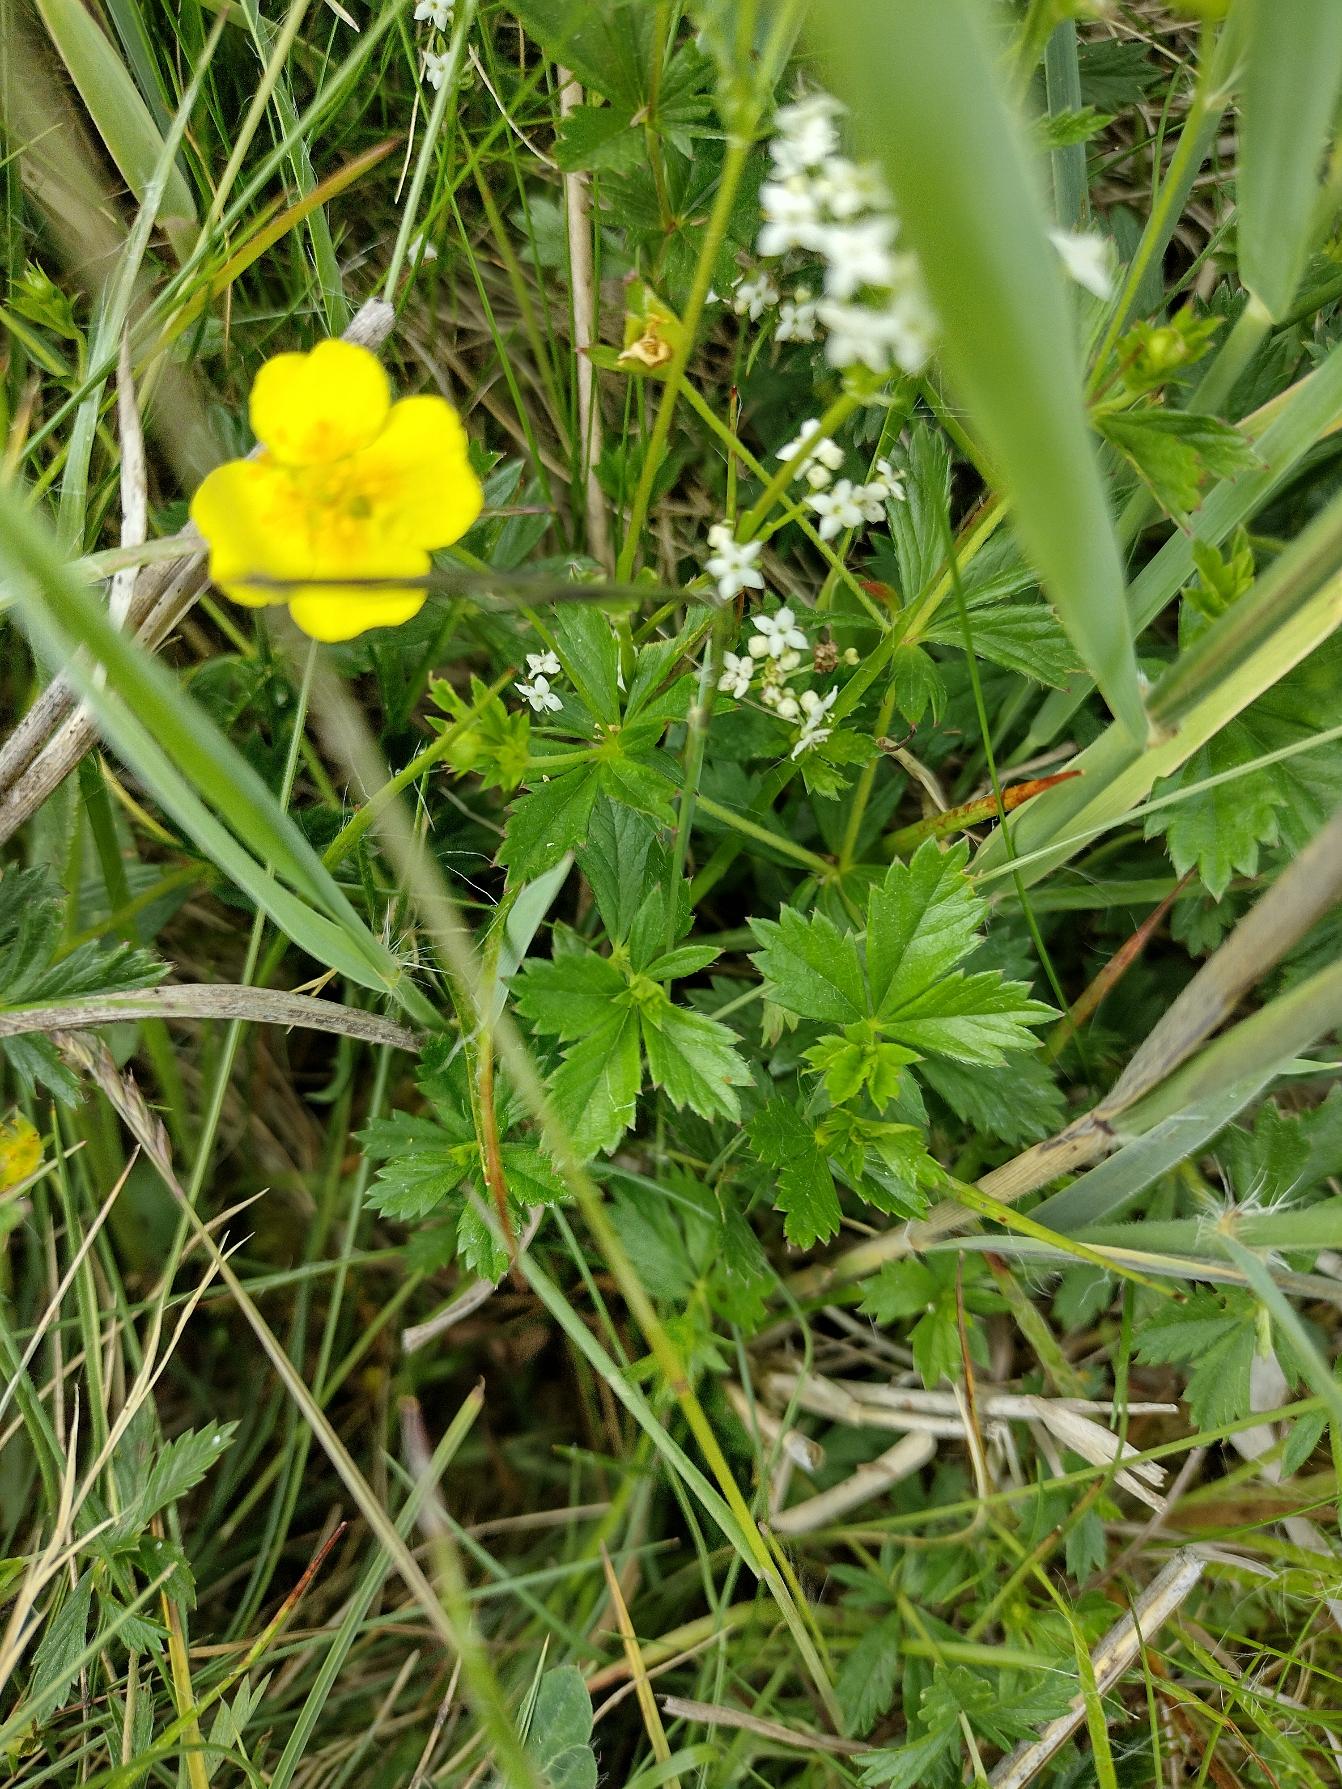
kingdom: Plantae
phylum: Tracheophyta
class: Magnoliopsida
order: Rosales
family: Rosaceae
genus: Potentilla
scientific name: Potentilla erecta
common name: Tormentil
